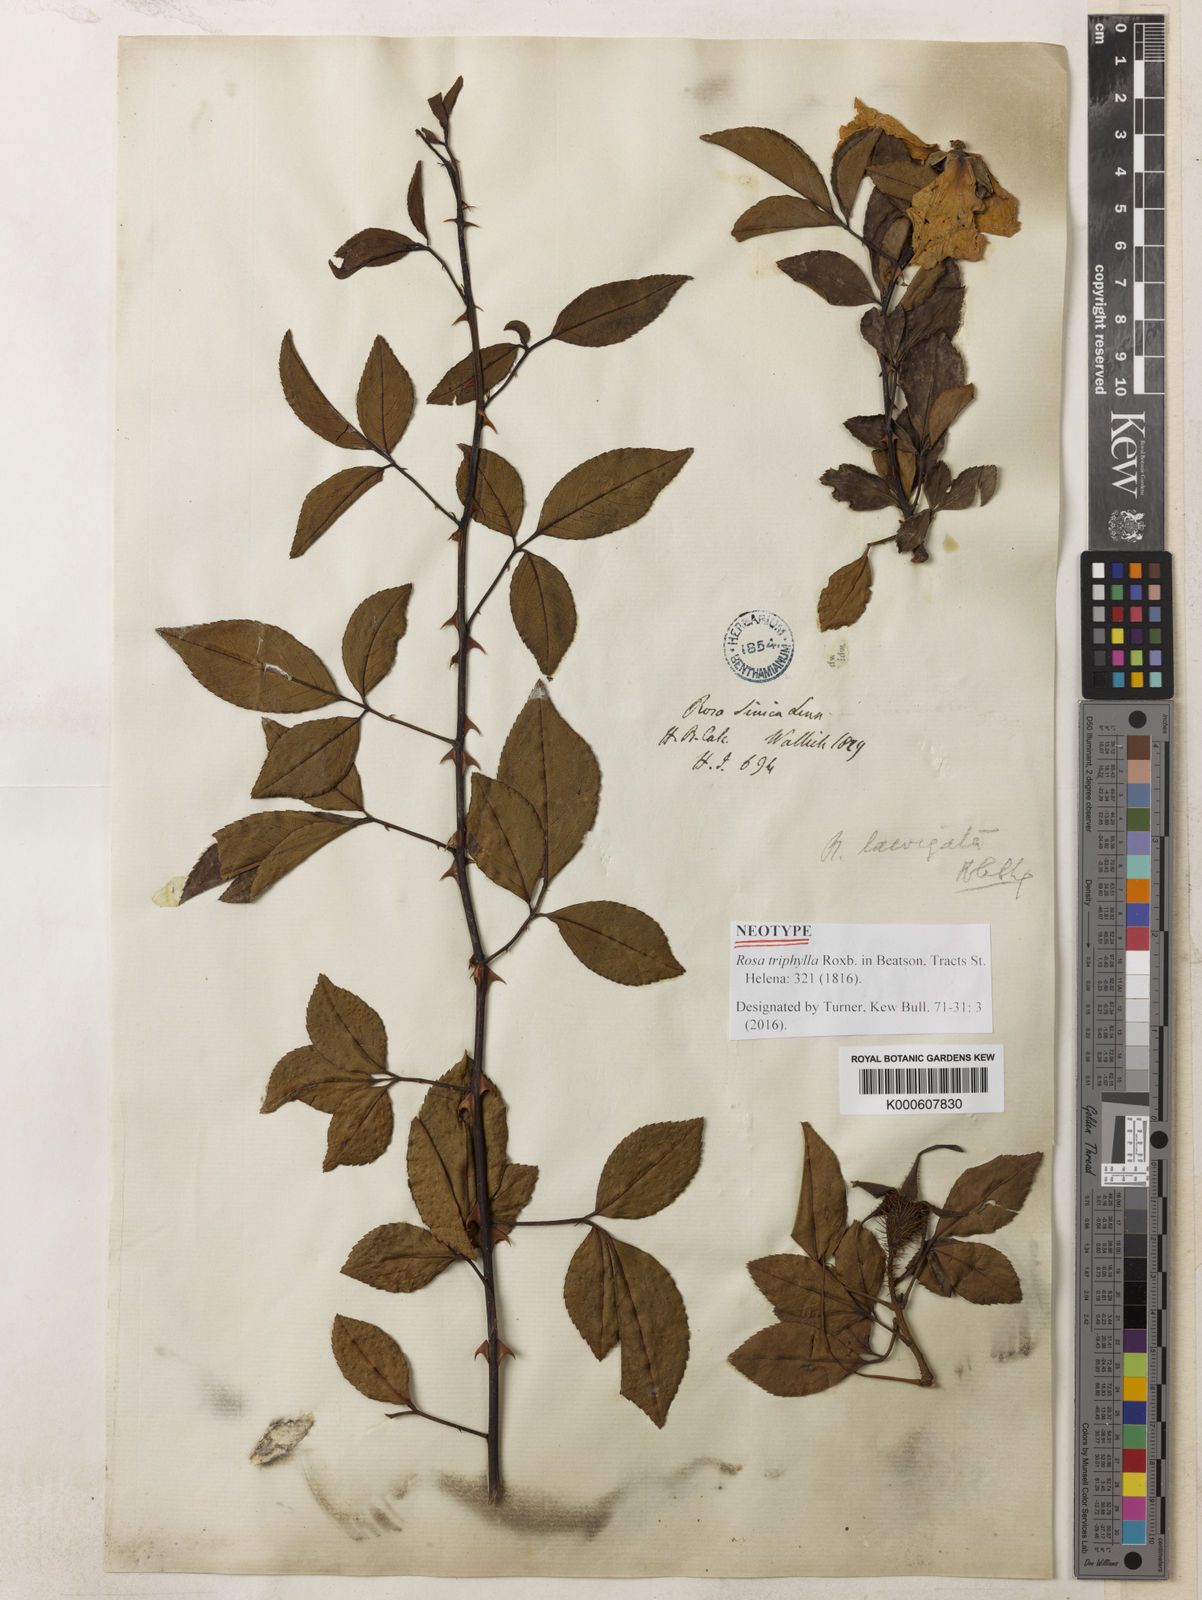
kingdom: Plantae
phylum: Tracheophyta
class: Magnoliopsida
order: Rosales
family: Rosaceae
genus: Rosa
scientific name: Rosa laevigata
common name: Cherokee rose
